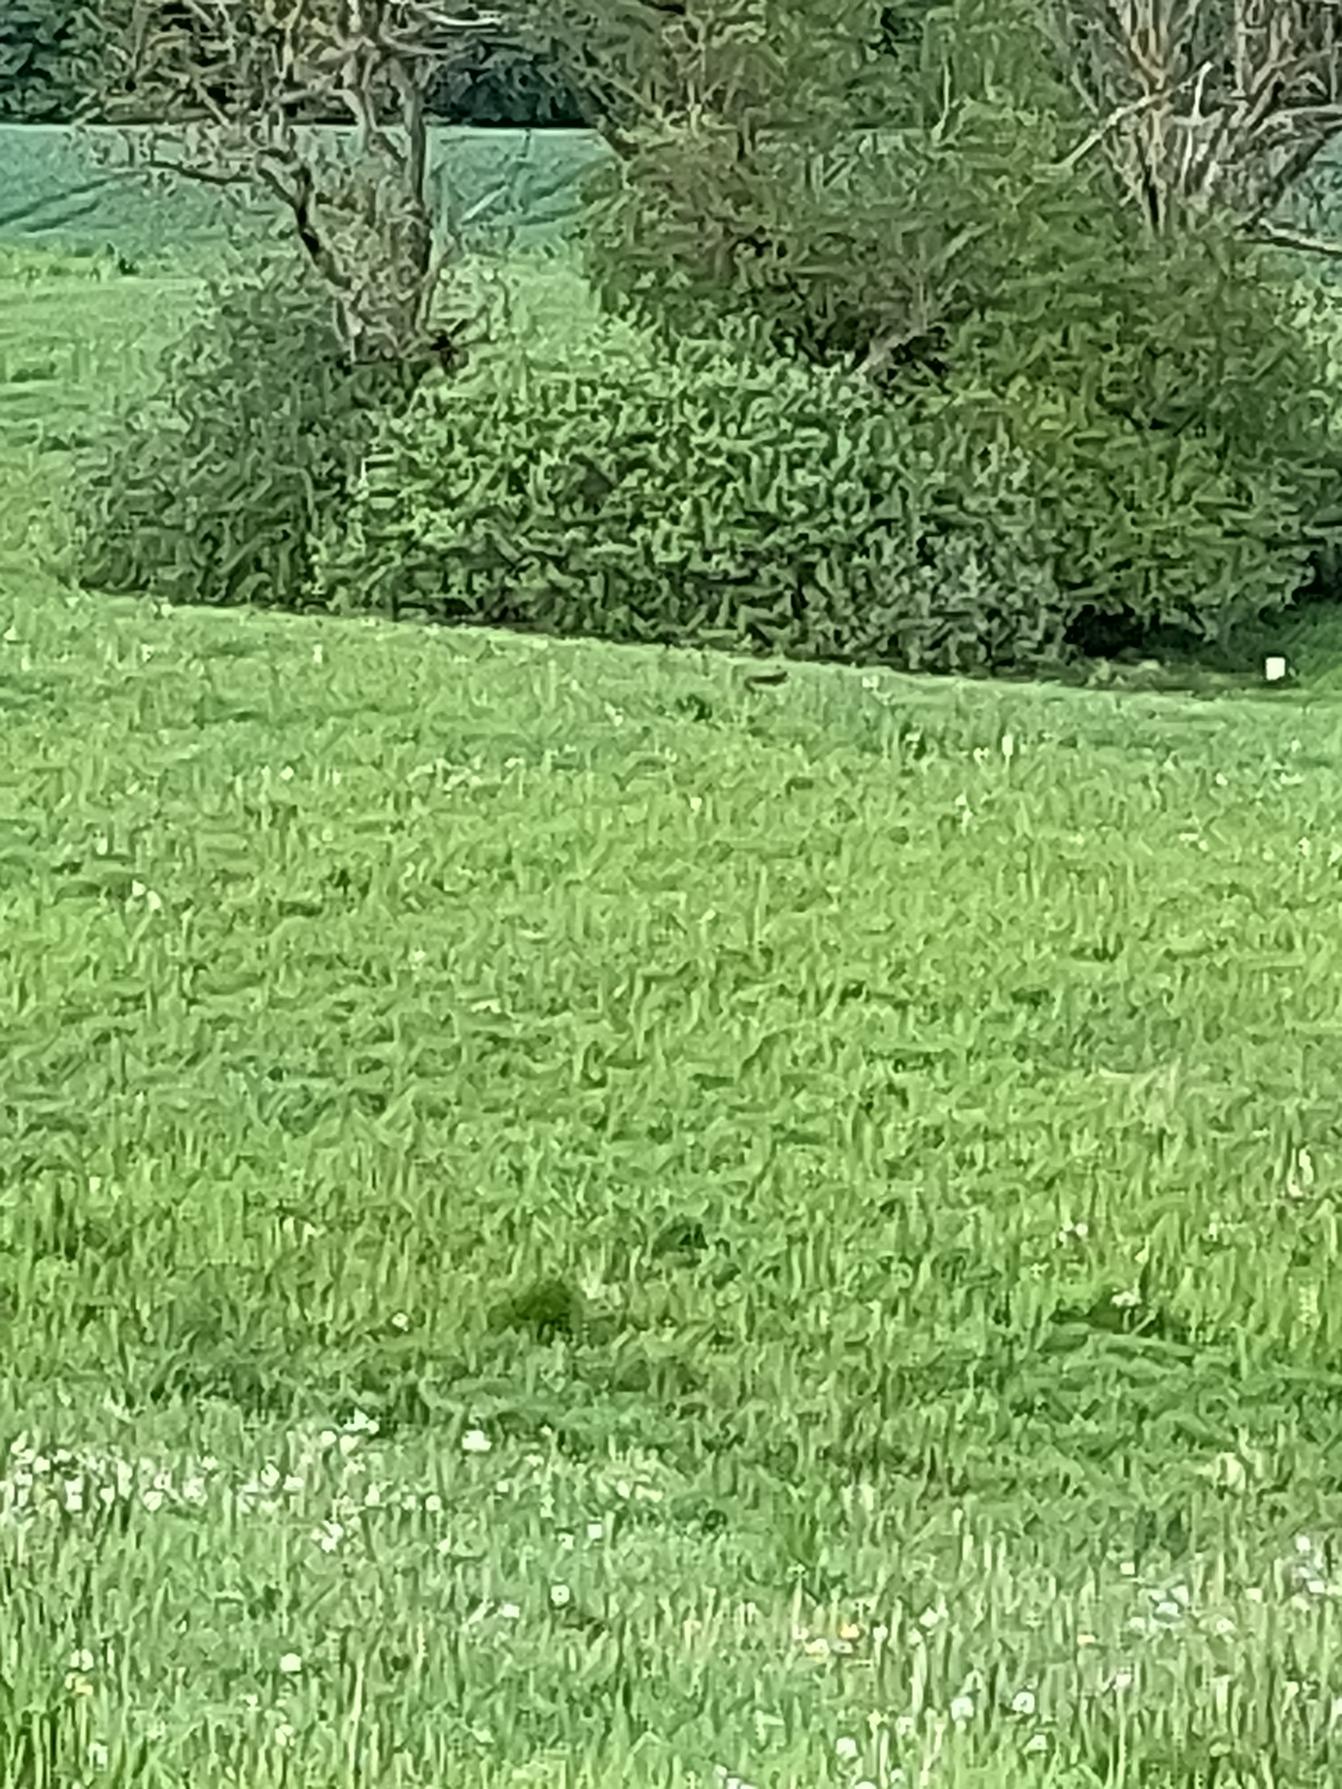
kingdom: Animalia
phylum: Chordata
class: Mammalia
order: Carnivora
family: Canidae
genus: Vulpes
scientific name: Vulpes vulpes
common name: Ræv
